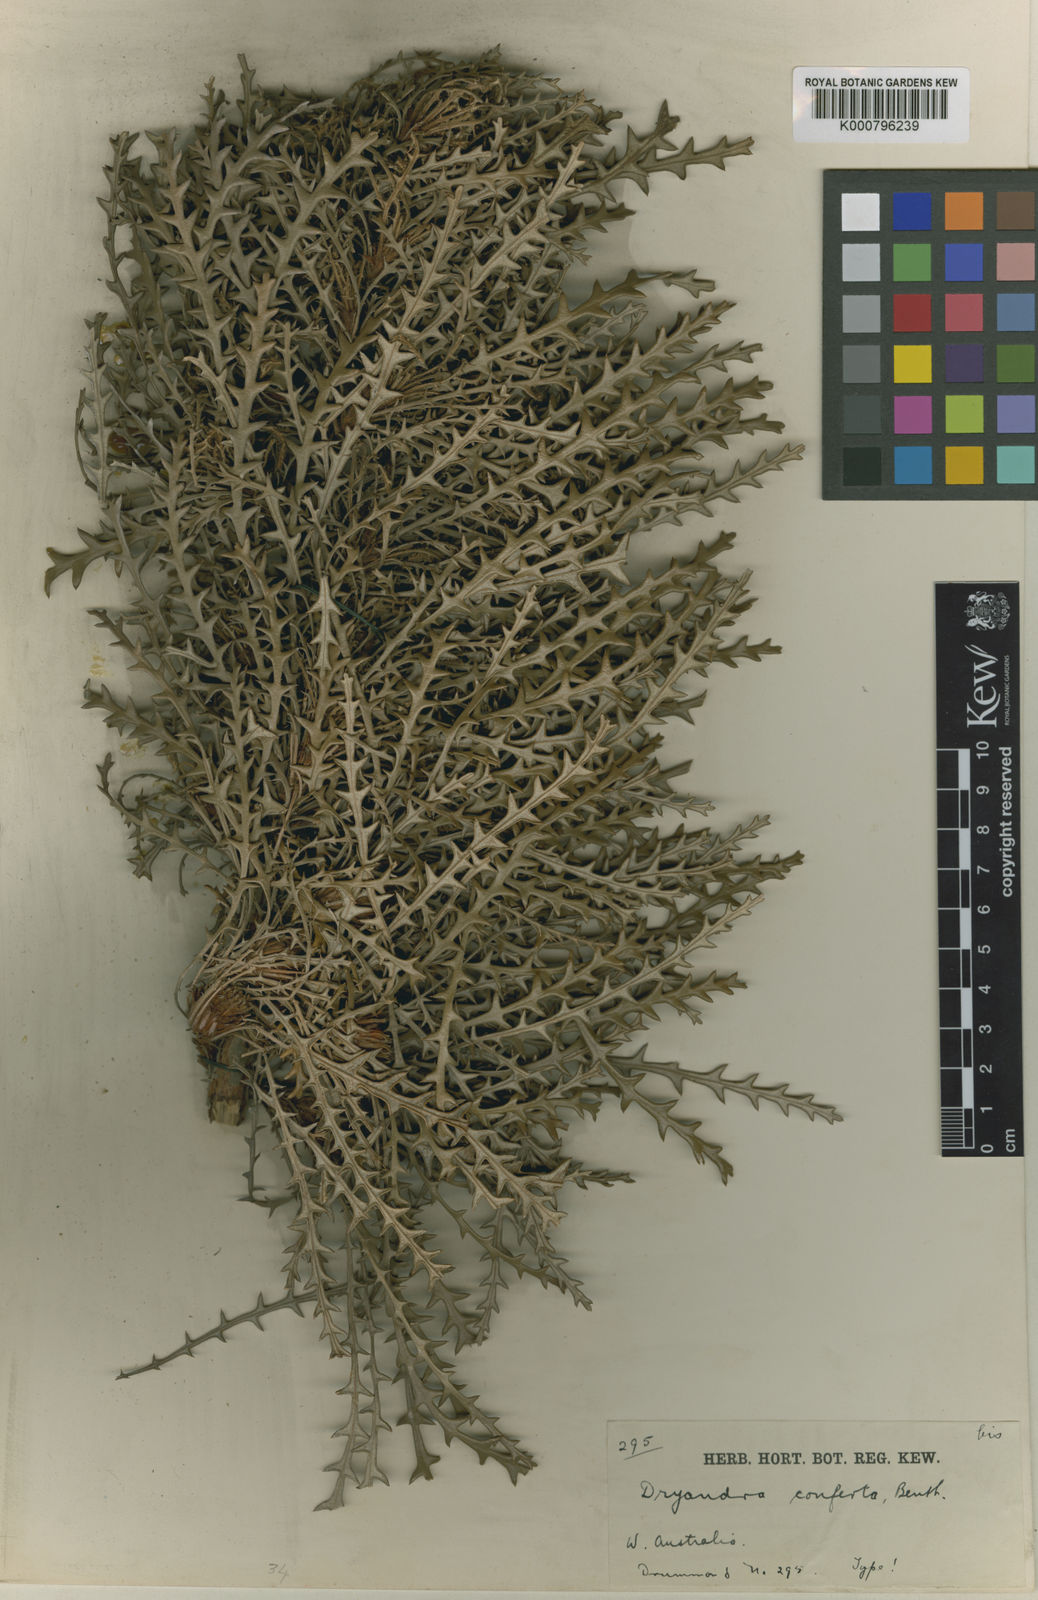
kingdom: Plantae
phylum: Tracheophyta
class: Magnoliopsida
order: Proteales
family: Proteaceae
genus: Banksia
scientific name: Banksia densa
